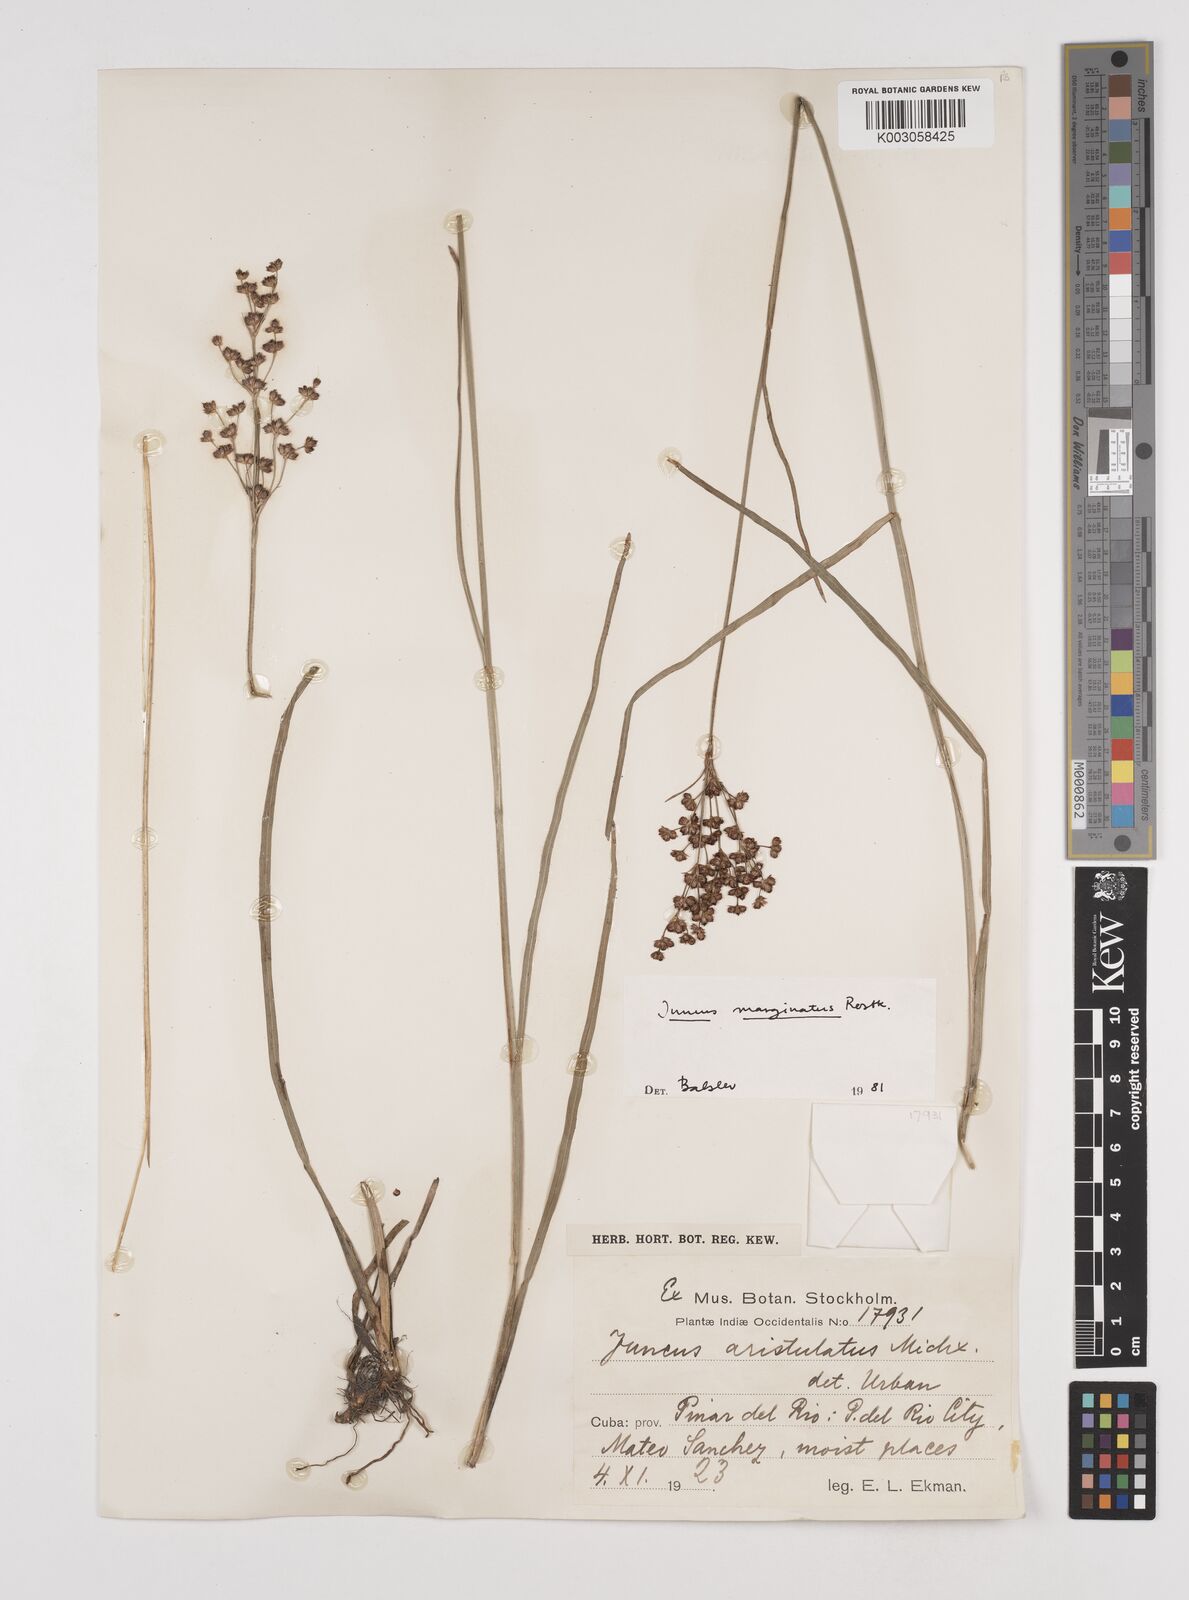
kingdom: Plantae
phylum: Tracheophyta
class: Liliopsida
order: Poales
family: Juncaceae
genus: Juncus
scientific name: Juncus marginatus
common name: Grass-leaf rush
